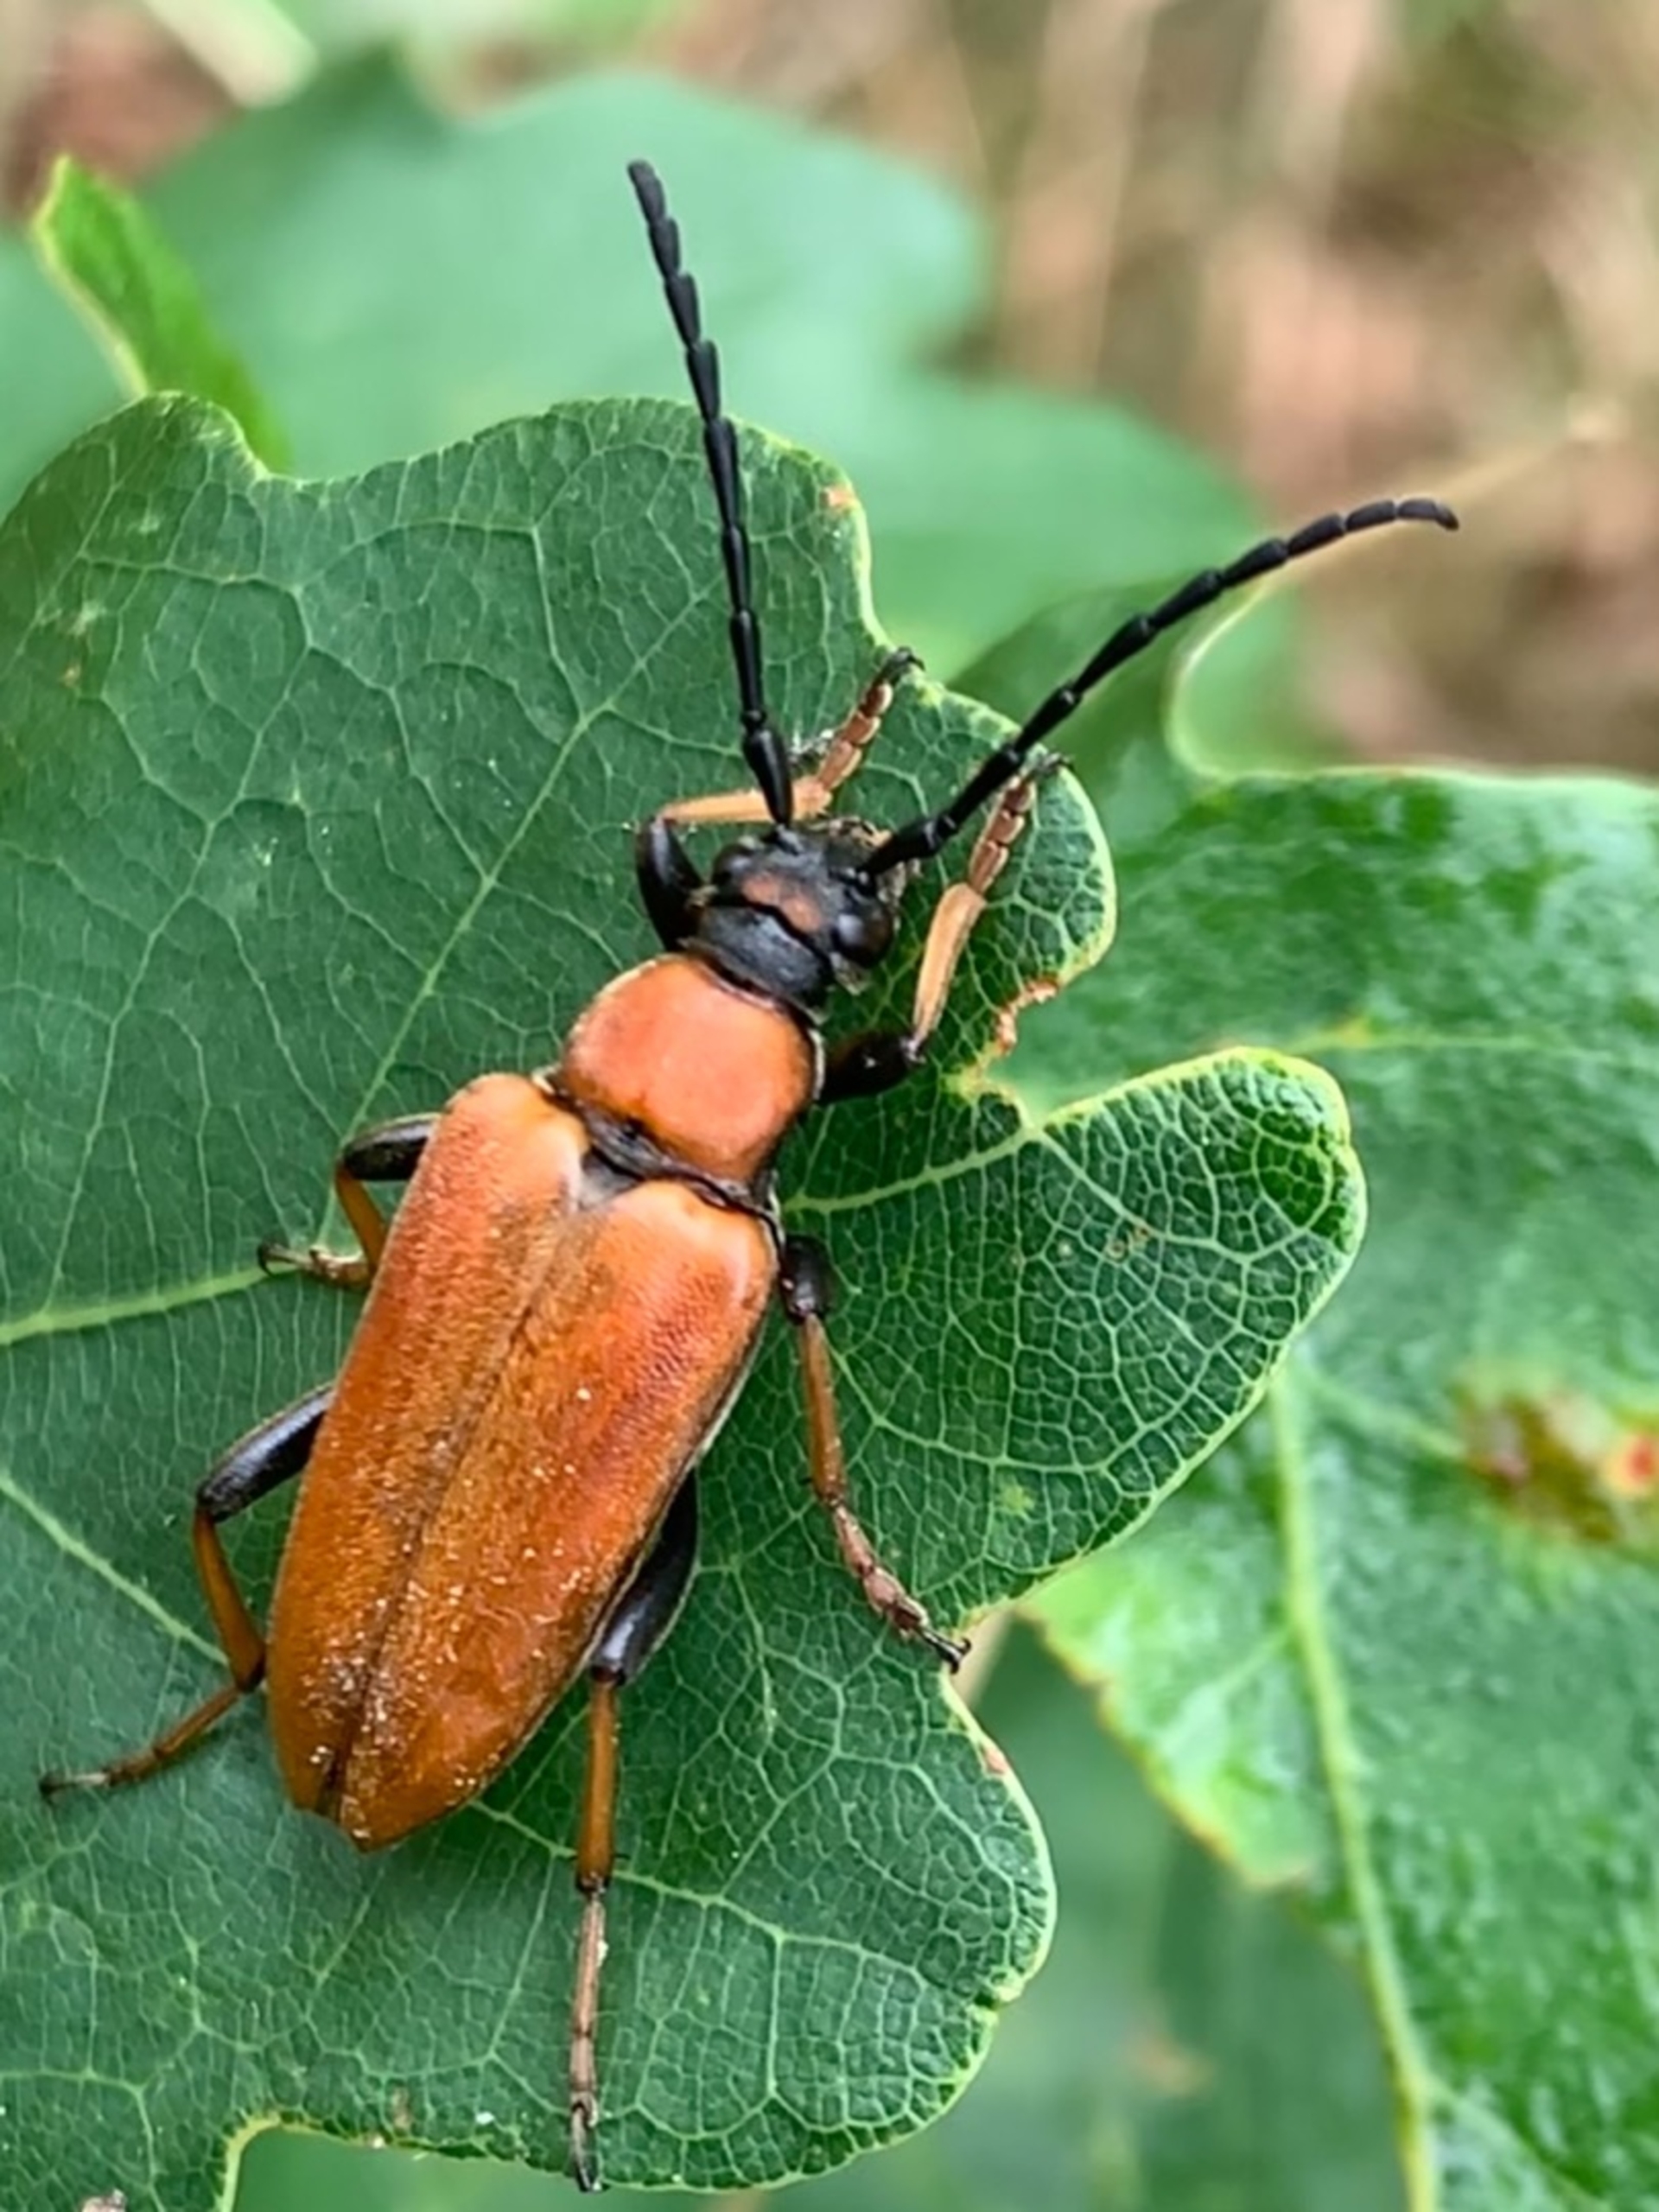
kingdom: Animalia
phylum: Arthropoda
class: Insecta
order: Coleoptera
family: Cerambycidae
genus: Stictoleptura
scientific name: Stictoleptura rubra
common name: Rød blomsterbuk
